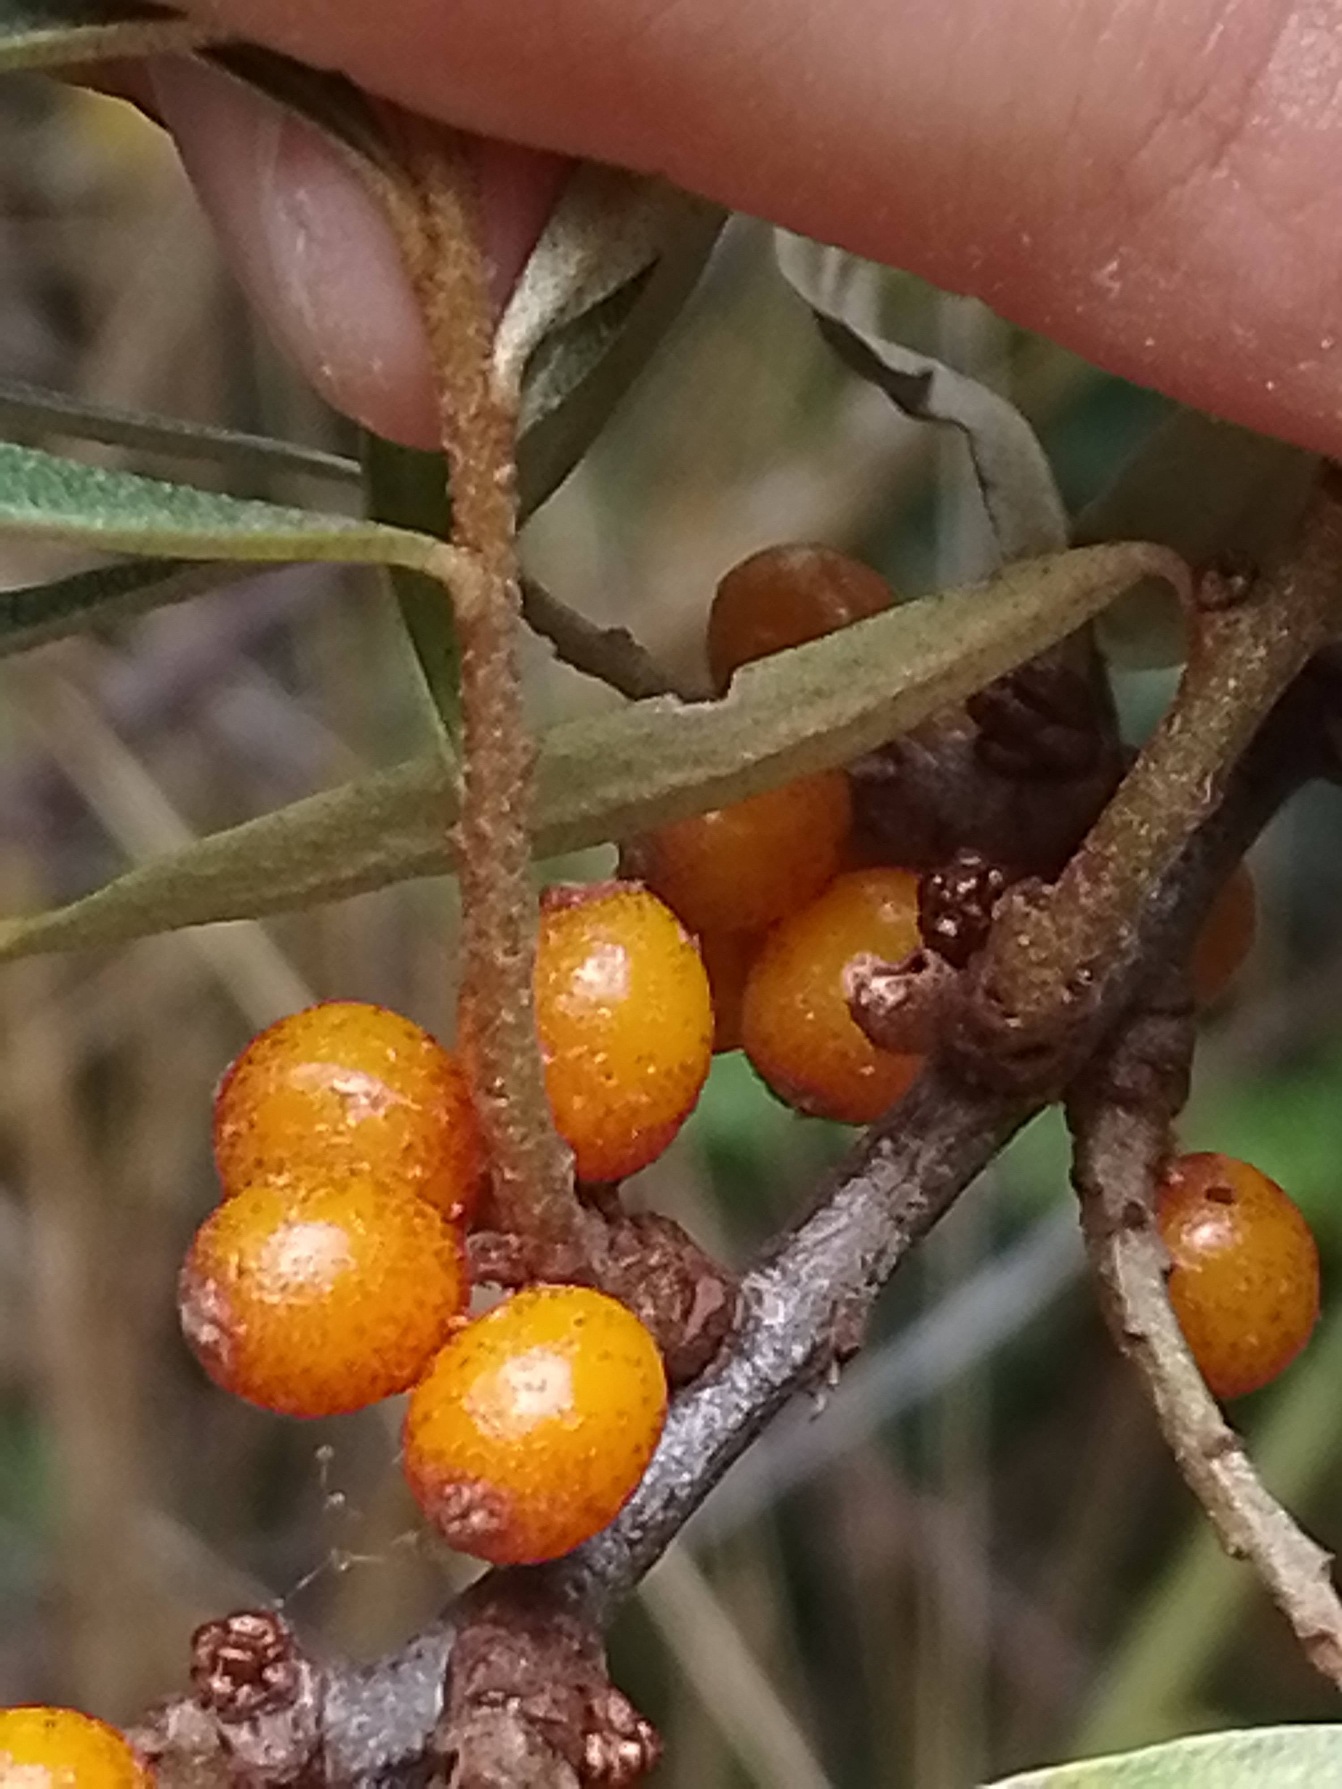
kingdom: Plantae
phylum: Tracheophyta
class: Magnoliopsida
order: Rosales
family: Elaeagnaceae
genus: Hippophae
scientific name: Hippophae rhamnoides
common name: Havtorn
